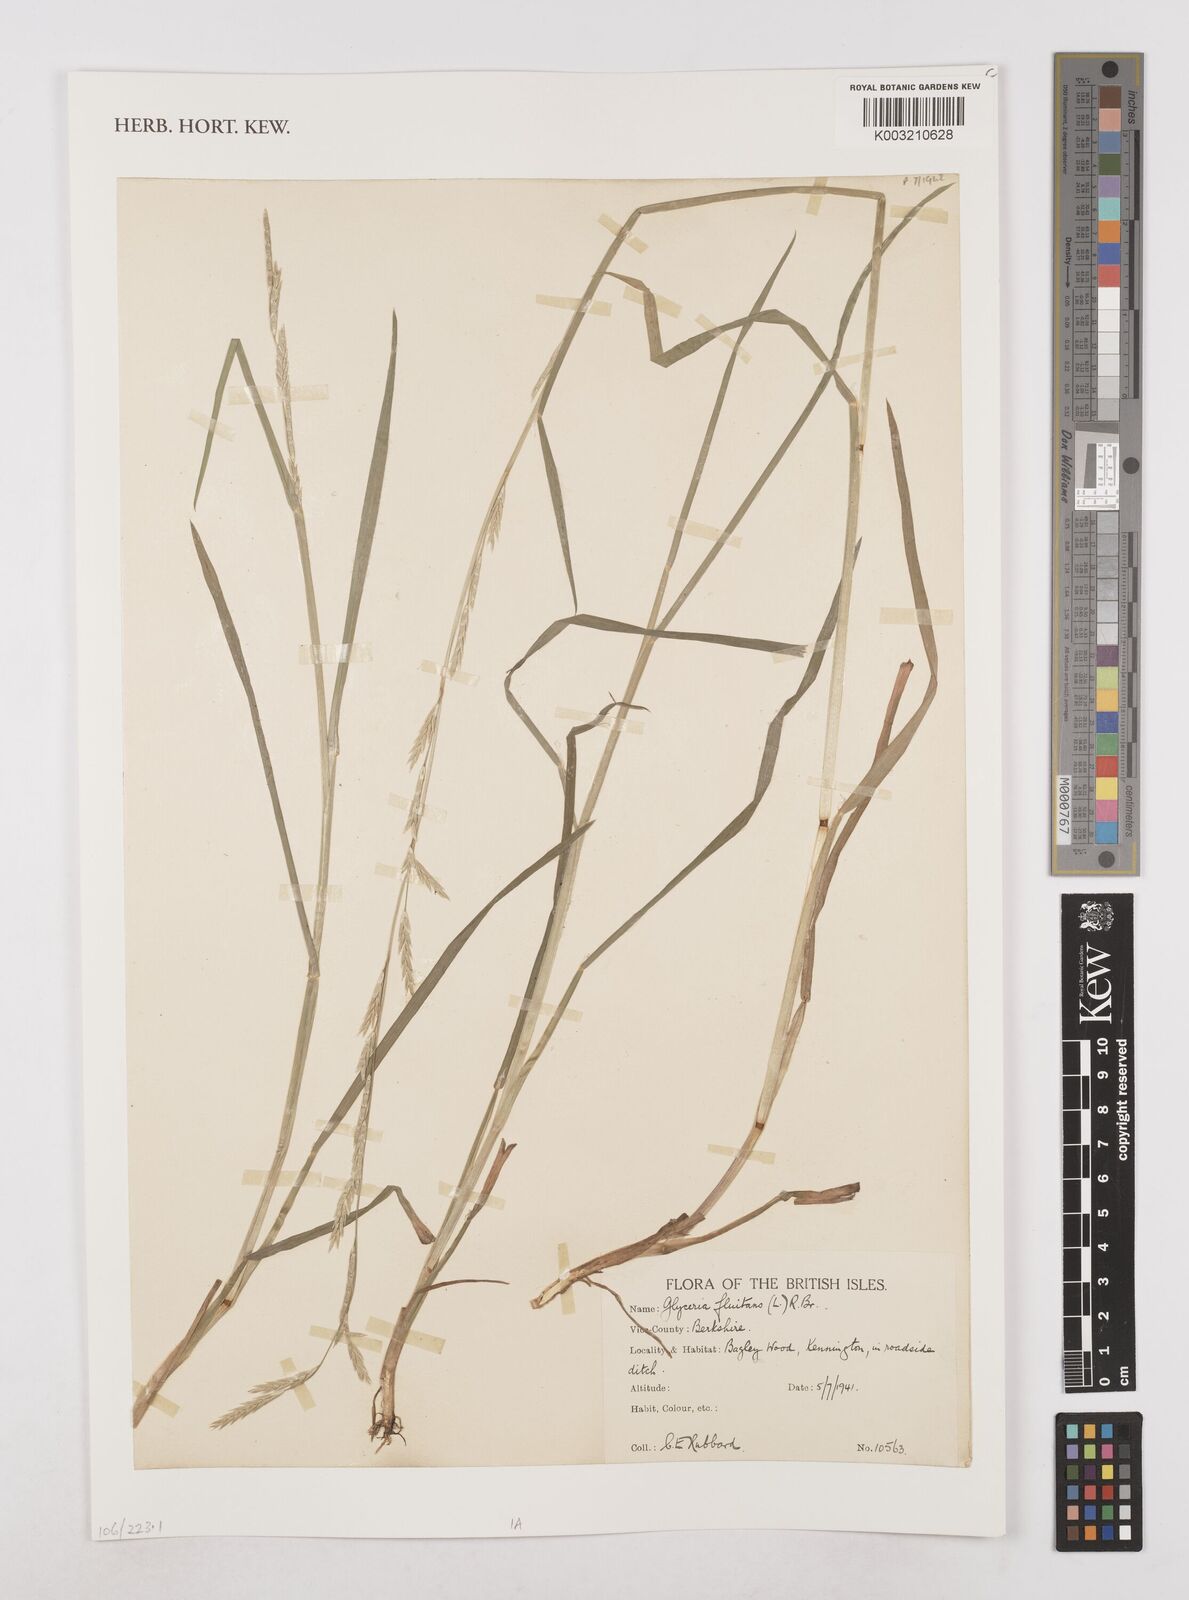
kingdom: Plantae
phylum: Tracheophyta
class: Liliopsida
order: Poales
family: Poaceae
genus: Glyceria
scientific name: Glyceria fluitans
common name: Floating sweet-grass
